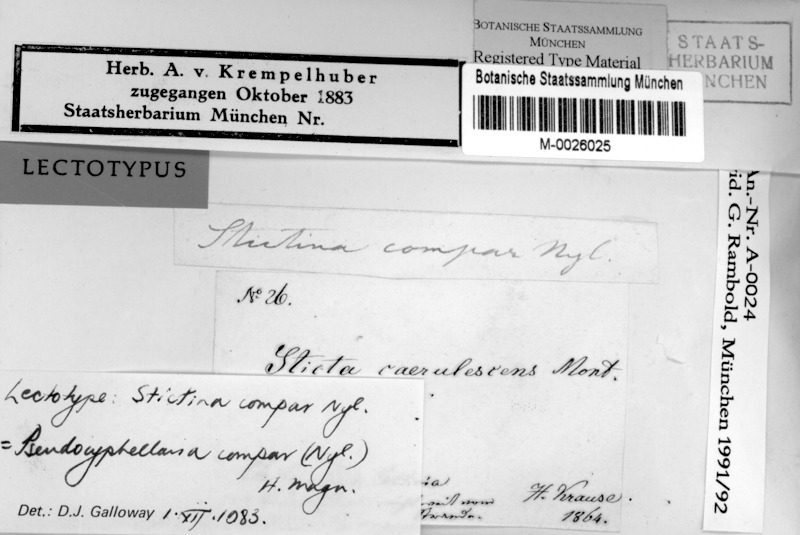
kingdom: Fungi
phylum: Ascomycota
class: Lecanoromycetes
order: Peltigerales
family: Lobariaceae
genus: Podostictina
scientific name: Podostictina compar
